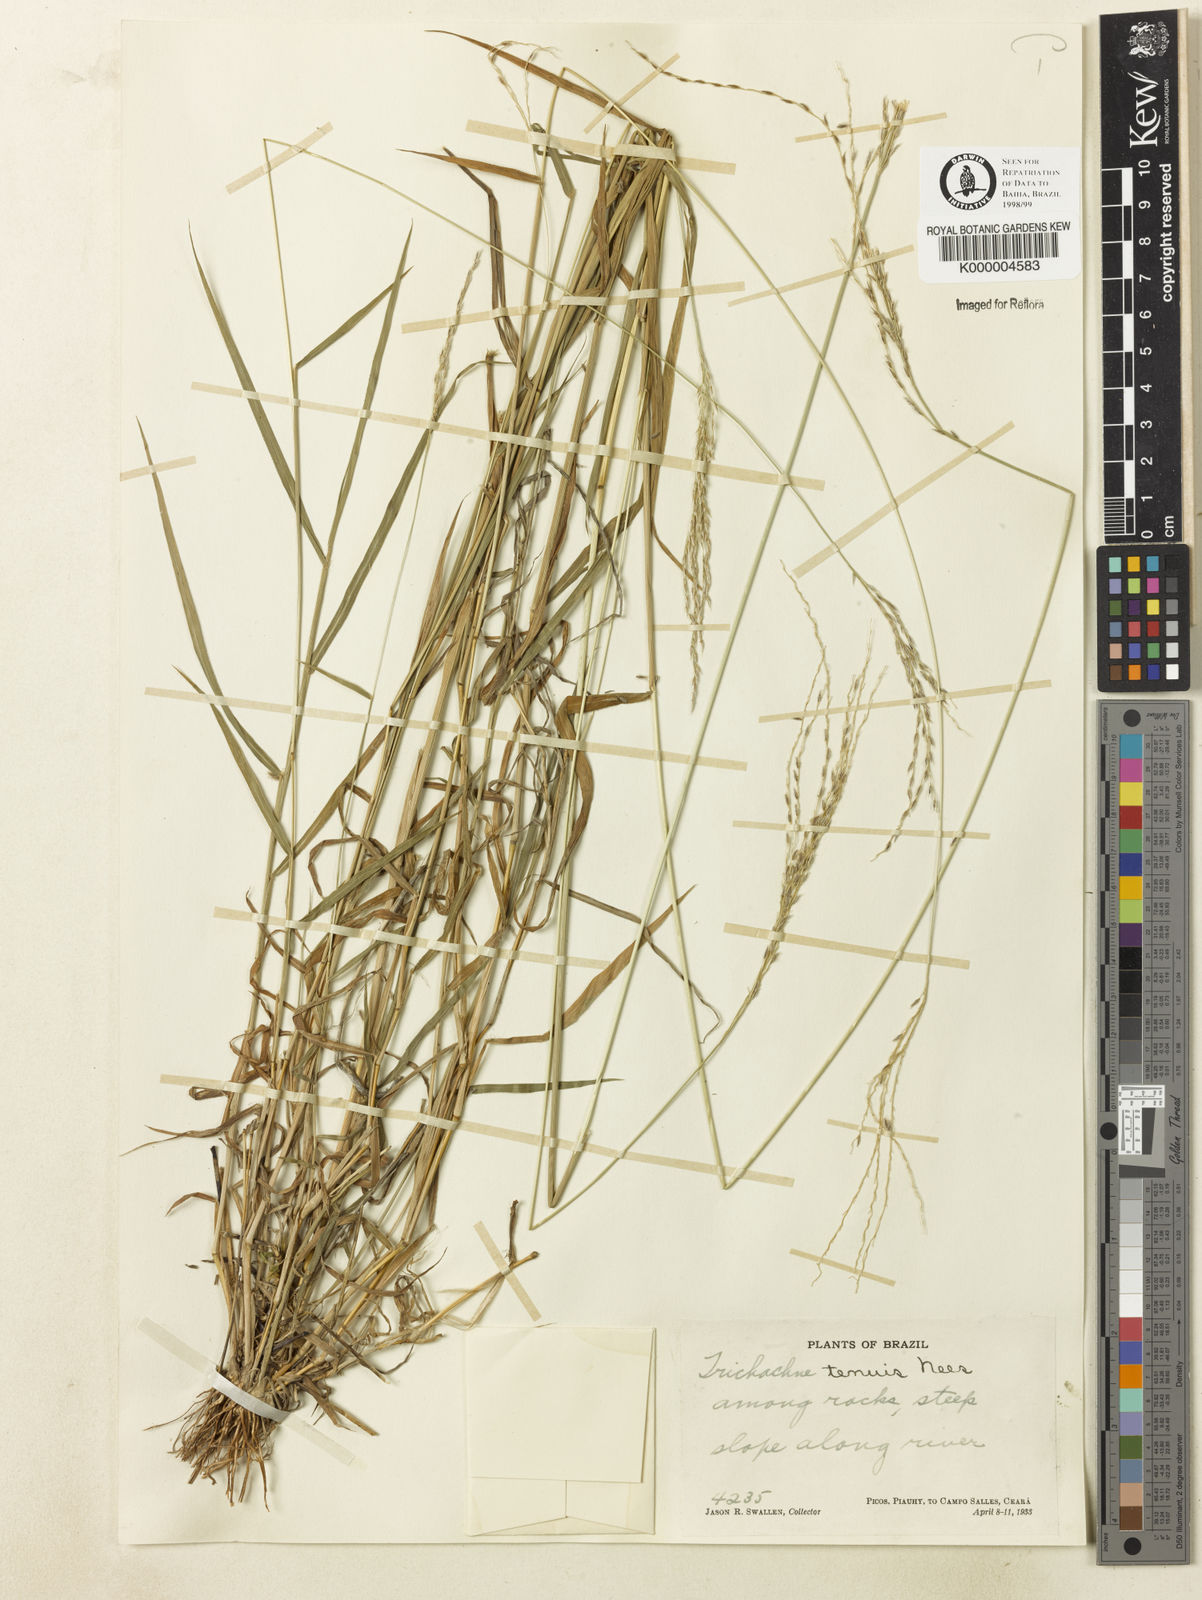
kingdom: Plantae
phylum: Tracheophyta
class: Liliopsida
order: Poales
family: Poaceae
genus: Digitaria
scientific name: Digitaria tenuis
